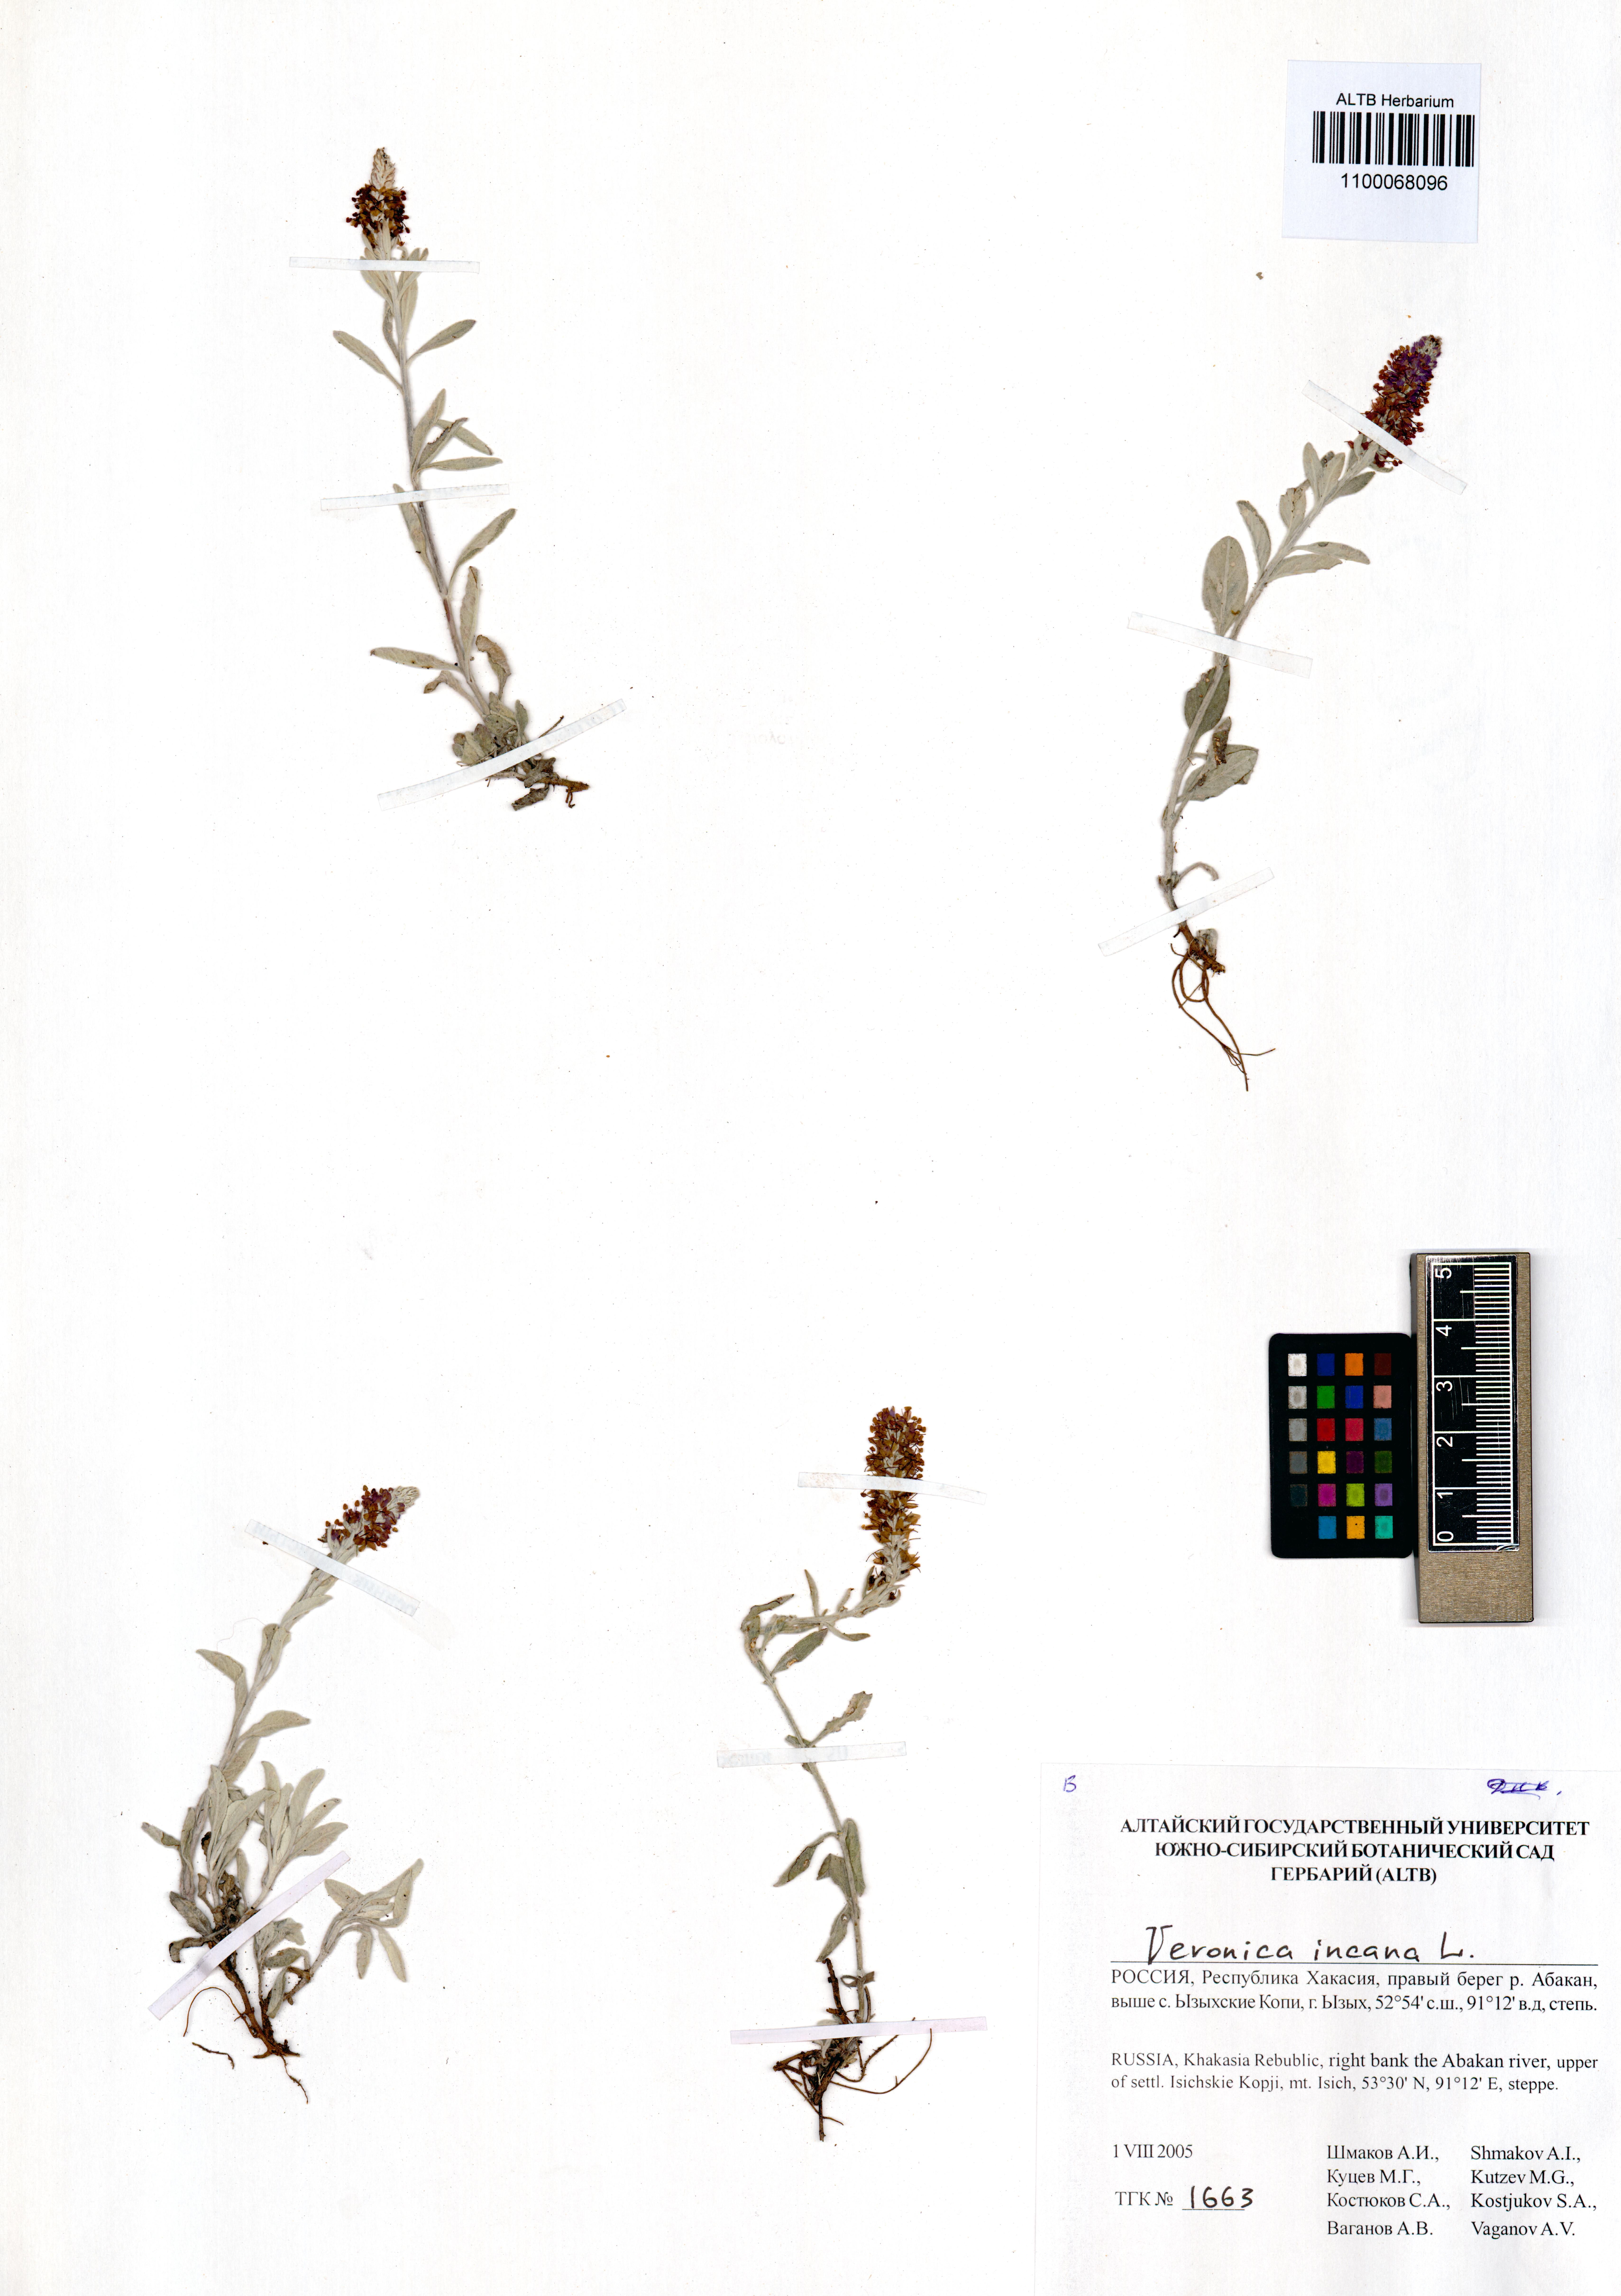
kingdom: Plantae
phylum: Tracheophyta
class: Magnoliopsida
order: Lamiales
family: Plantaginaceae
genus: Veronica
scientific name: Veronica incana
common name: Silver speedwell
